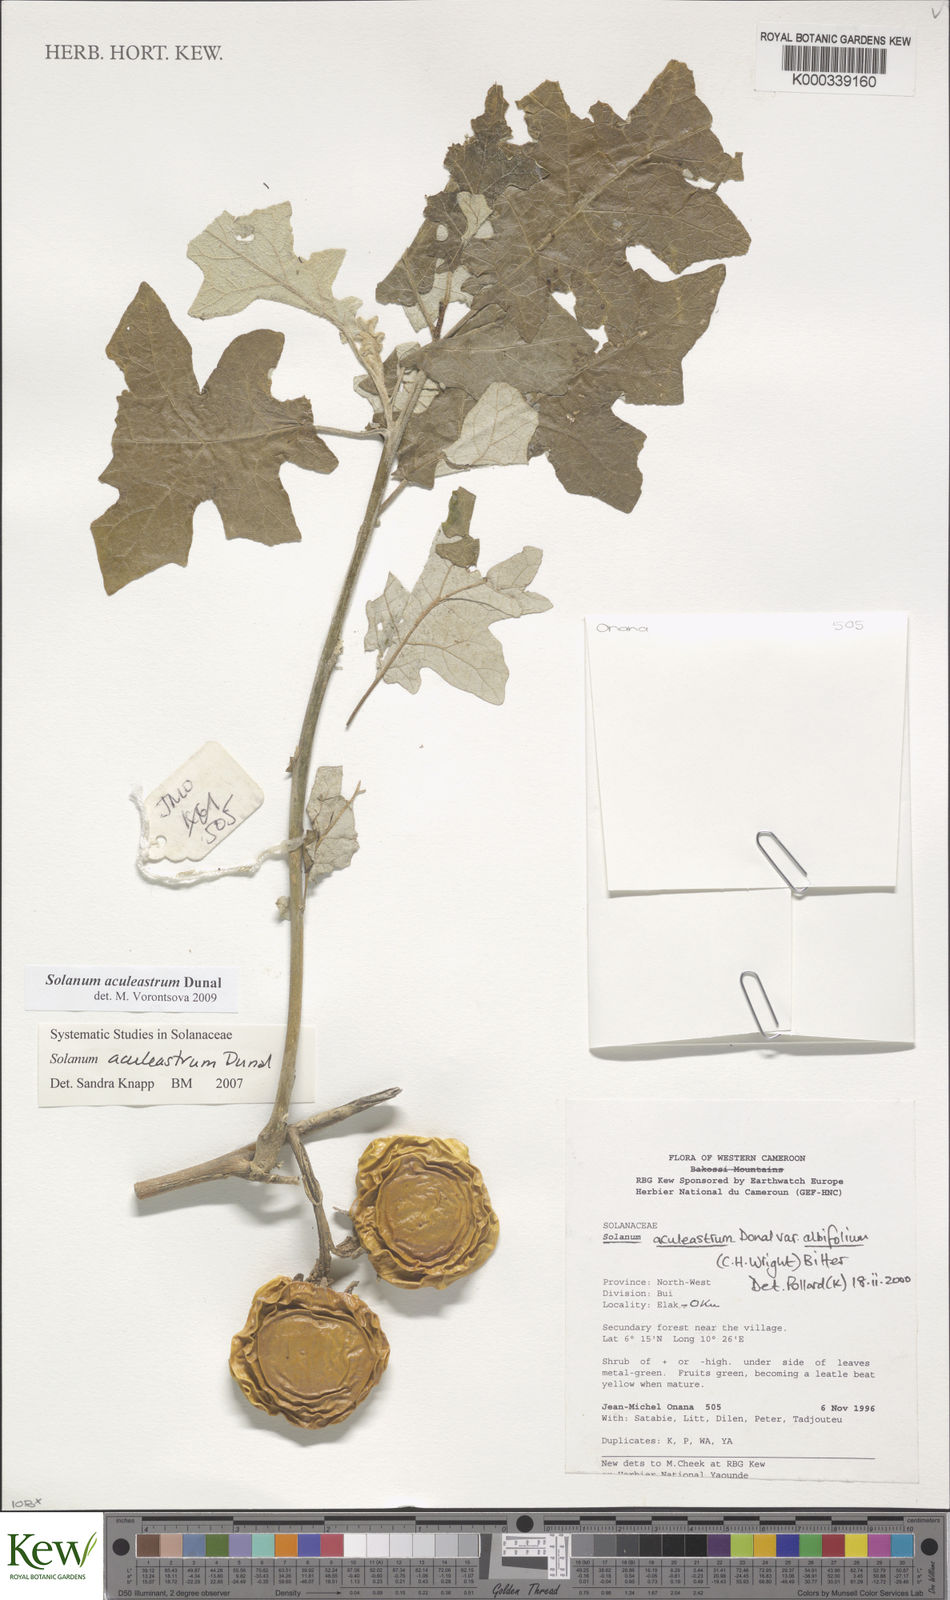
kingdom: Plantae
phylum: Tracheophyta
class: Magnoliopsida
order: Solanales
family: Solanaceae
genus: Solanum
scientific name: Solanum aculeastrum
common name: Goat bitter-apple
